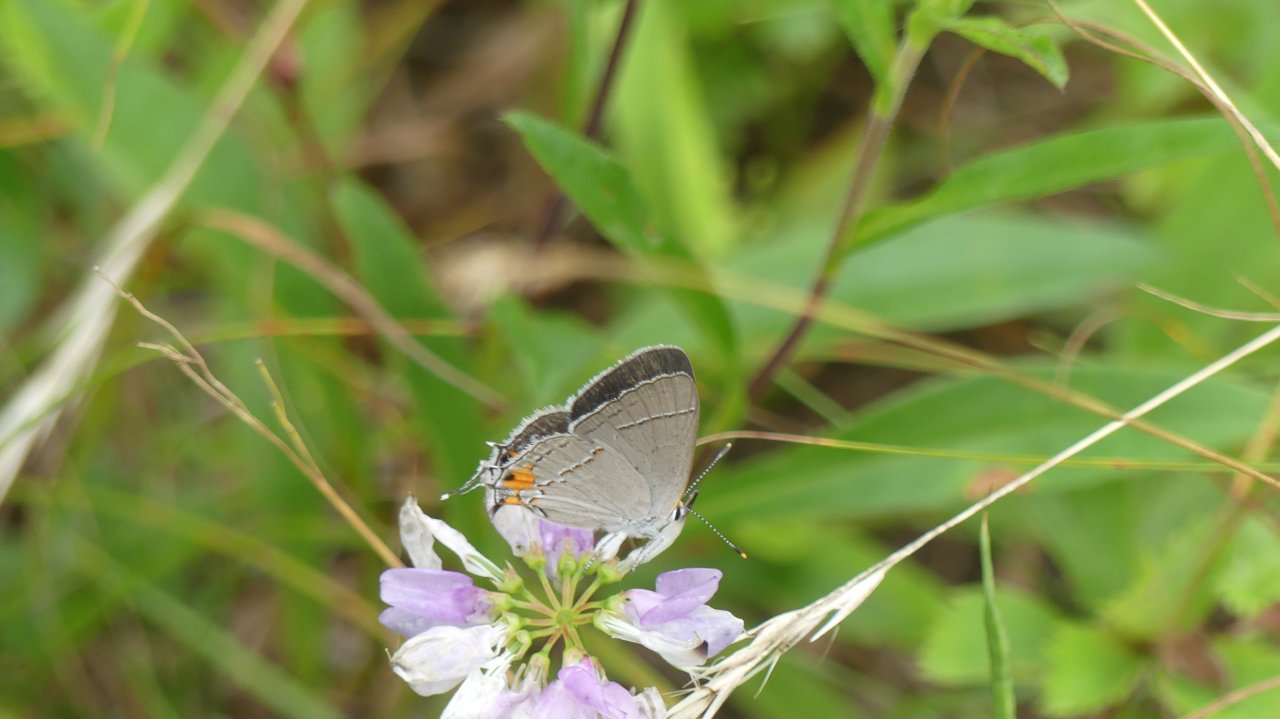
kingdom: Animalia
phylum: Arthropoda
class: Insecta
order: Lepidoptera
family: Lycaenidae
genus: Strymon
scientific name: Strymon melinus
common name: Gray Hairstreak
